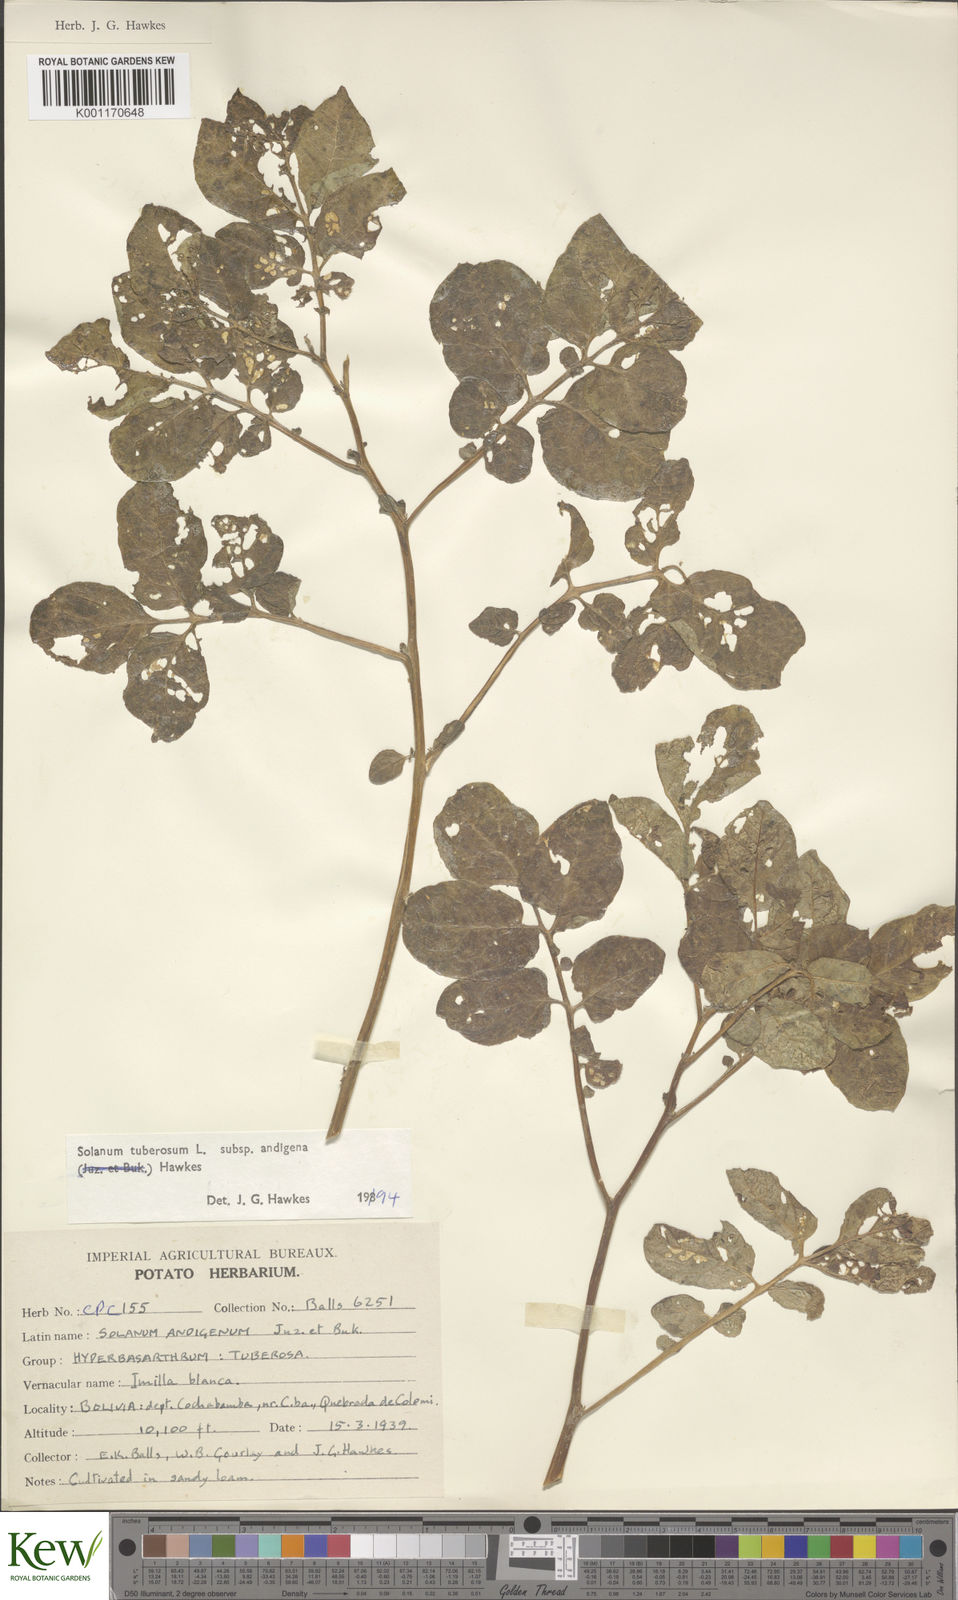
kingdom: Plantae
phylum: Tracheophyta
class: Magnoliopsida
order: Solanales
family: Solanaceae
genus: Solanum
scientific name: Solanum tuberosum
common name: Potato
